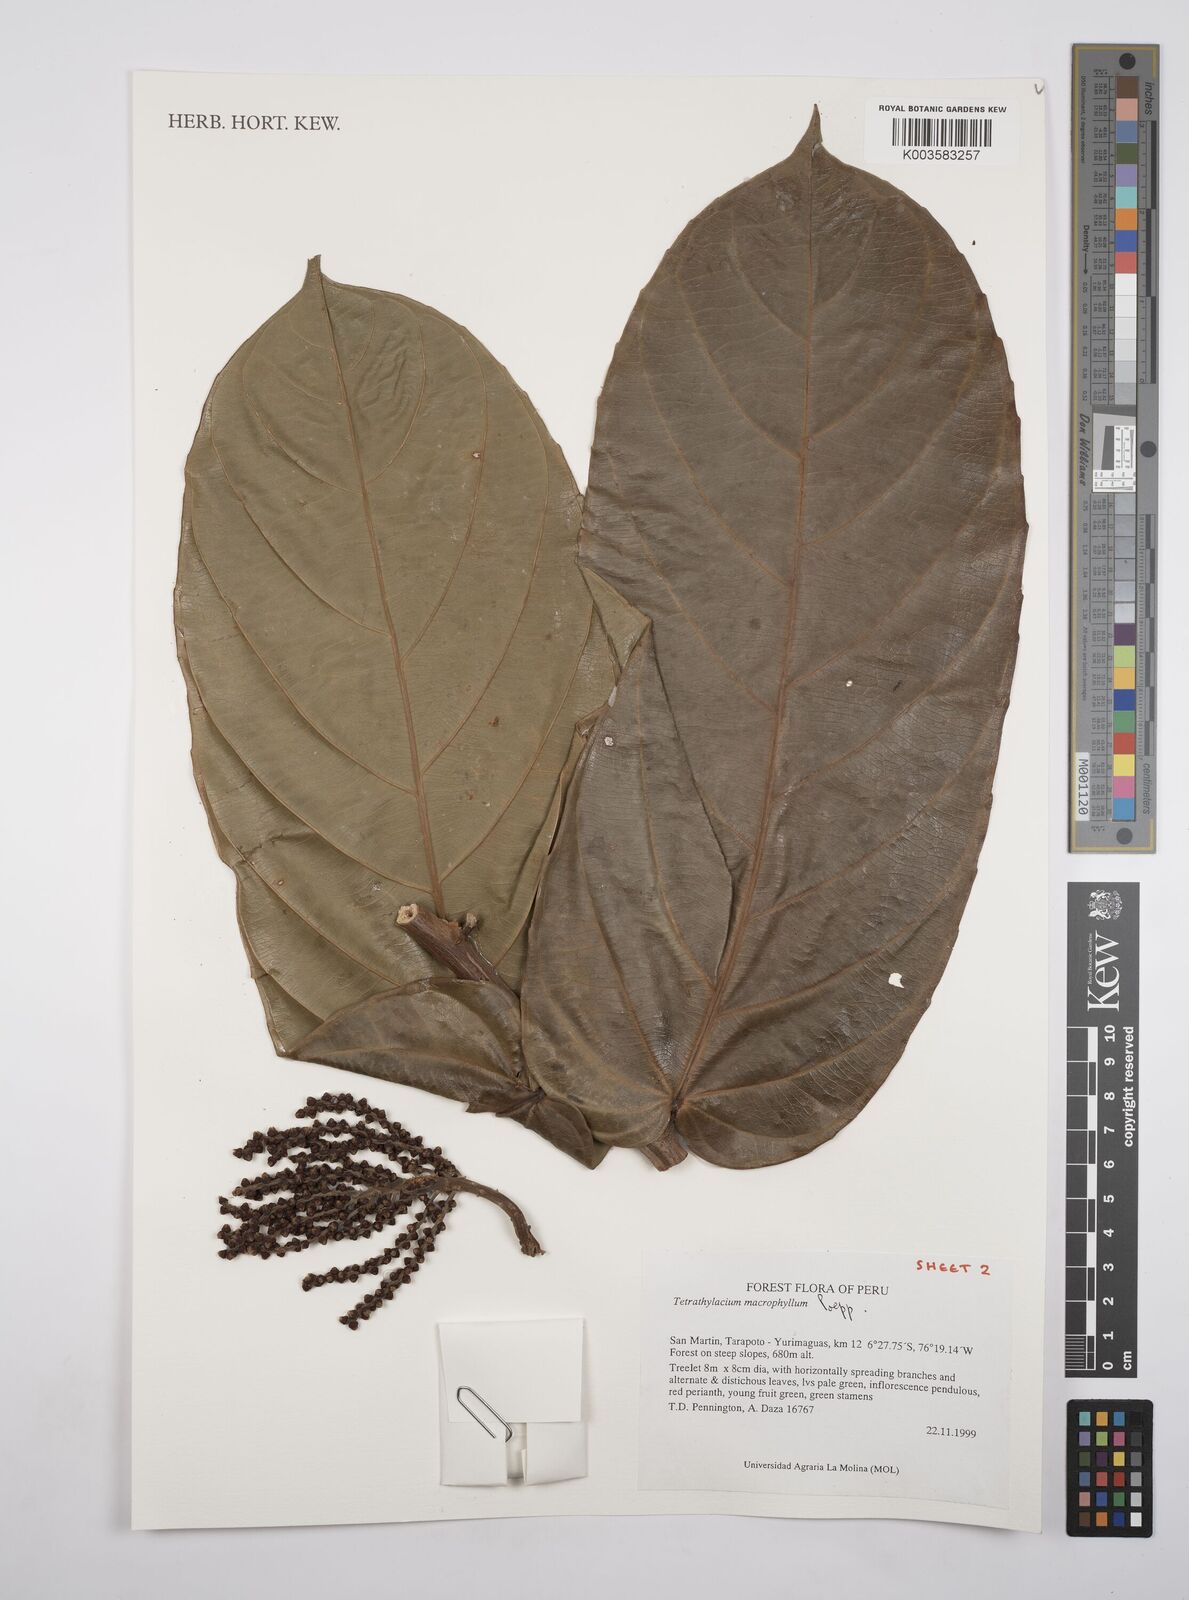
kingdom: Plantae
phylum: Tracheophyta
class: Magnoliopsida
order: Malpighiales
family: Salicaceae
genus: Tetrathylacium
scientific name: Tetrathylacium macrophyllum
